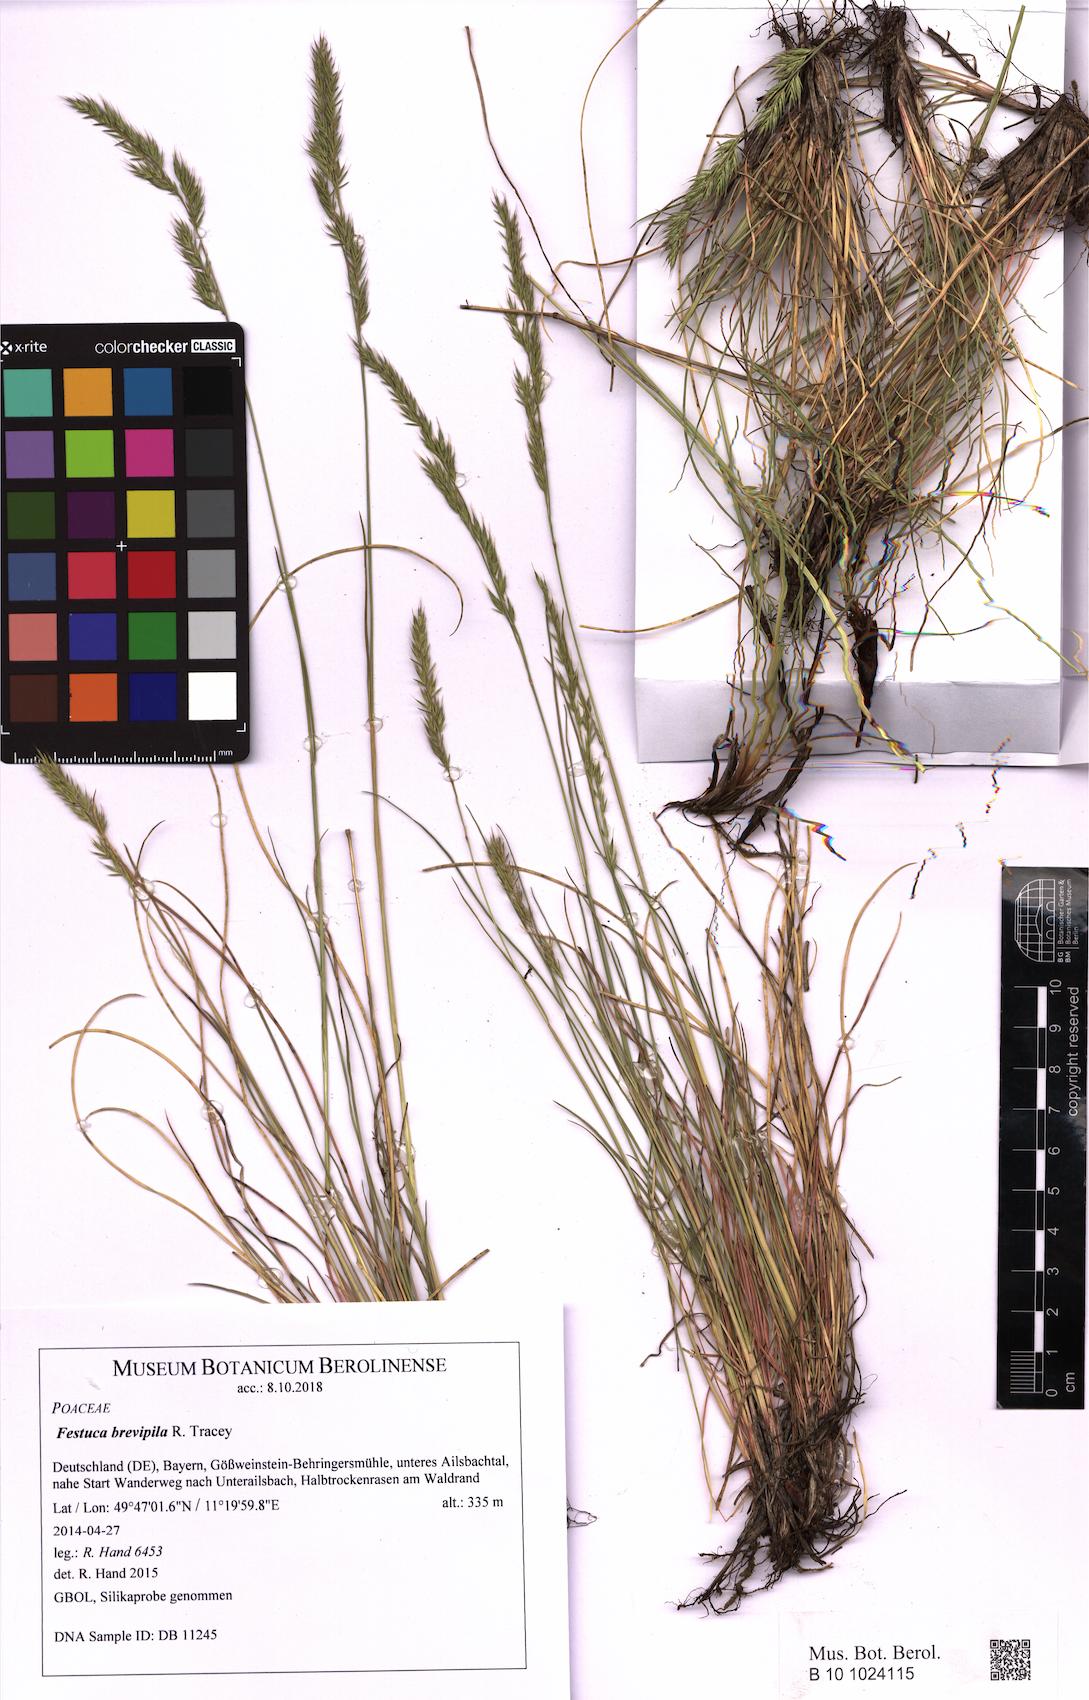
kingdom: Plantae
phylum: Tracheophyta
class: Liliopsida
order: Poales
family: Poaceae
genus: Festuca
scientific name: Festuca trachyphylla
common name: Hard fescue
